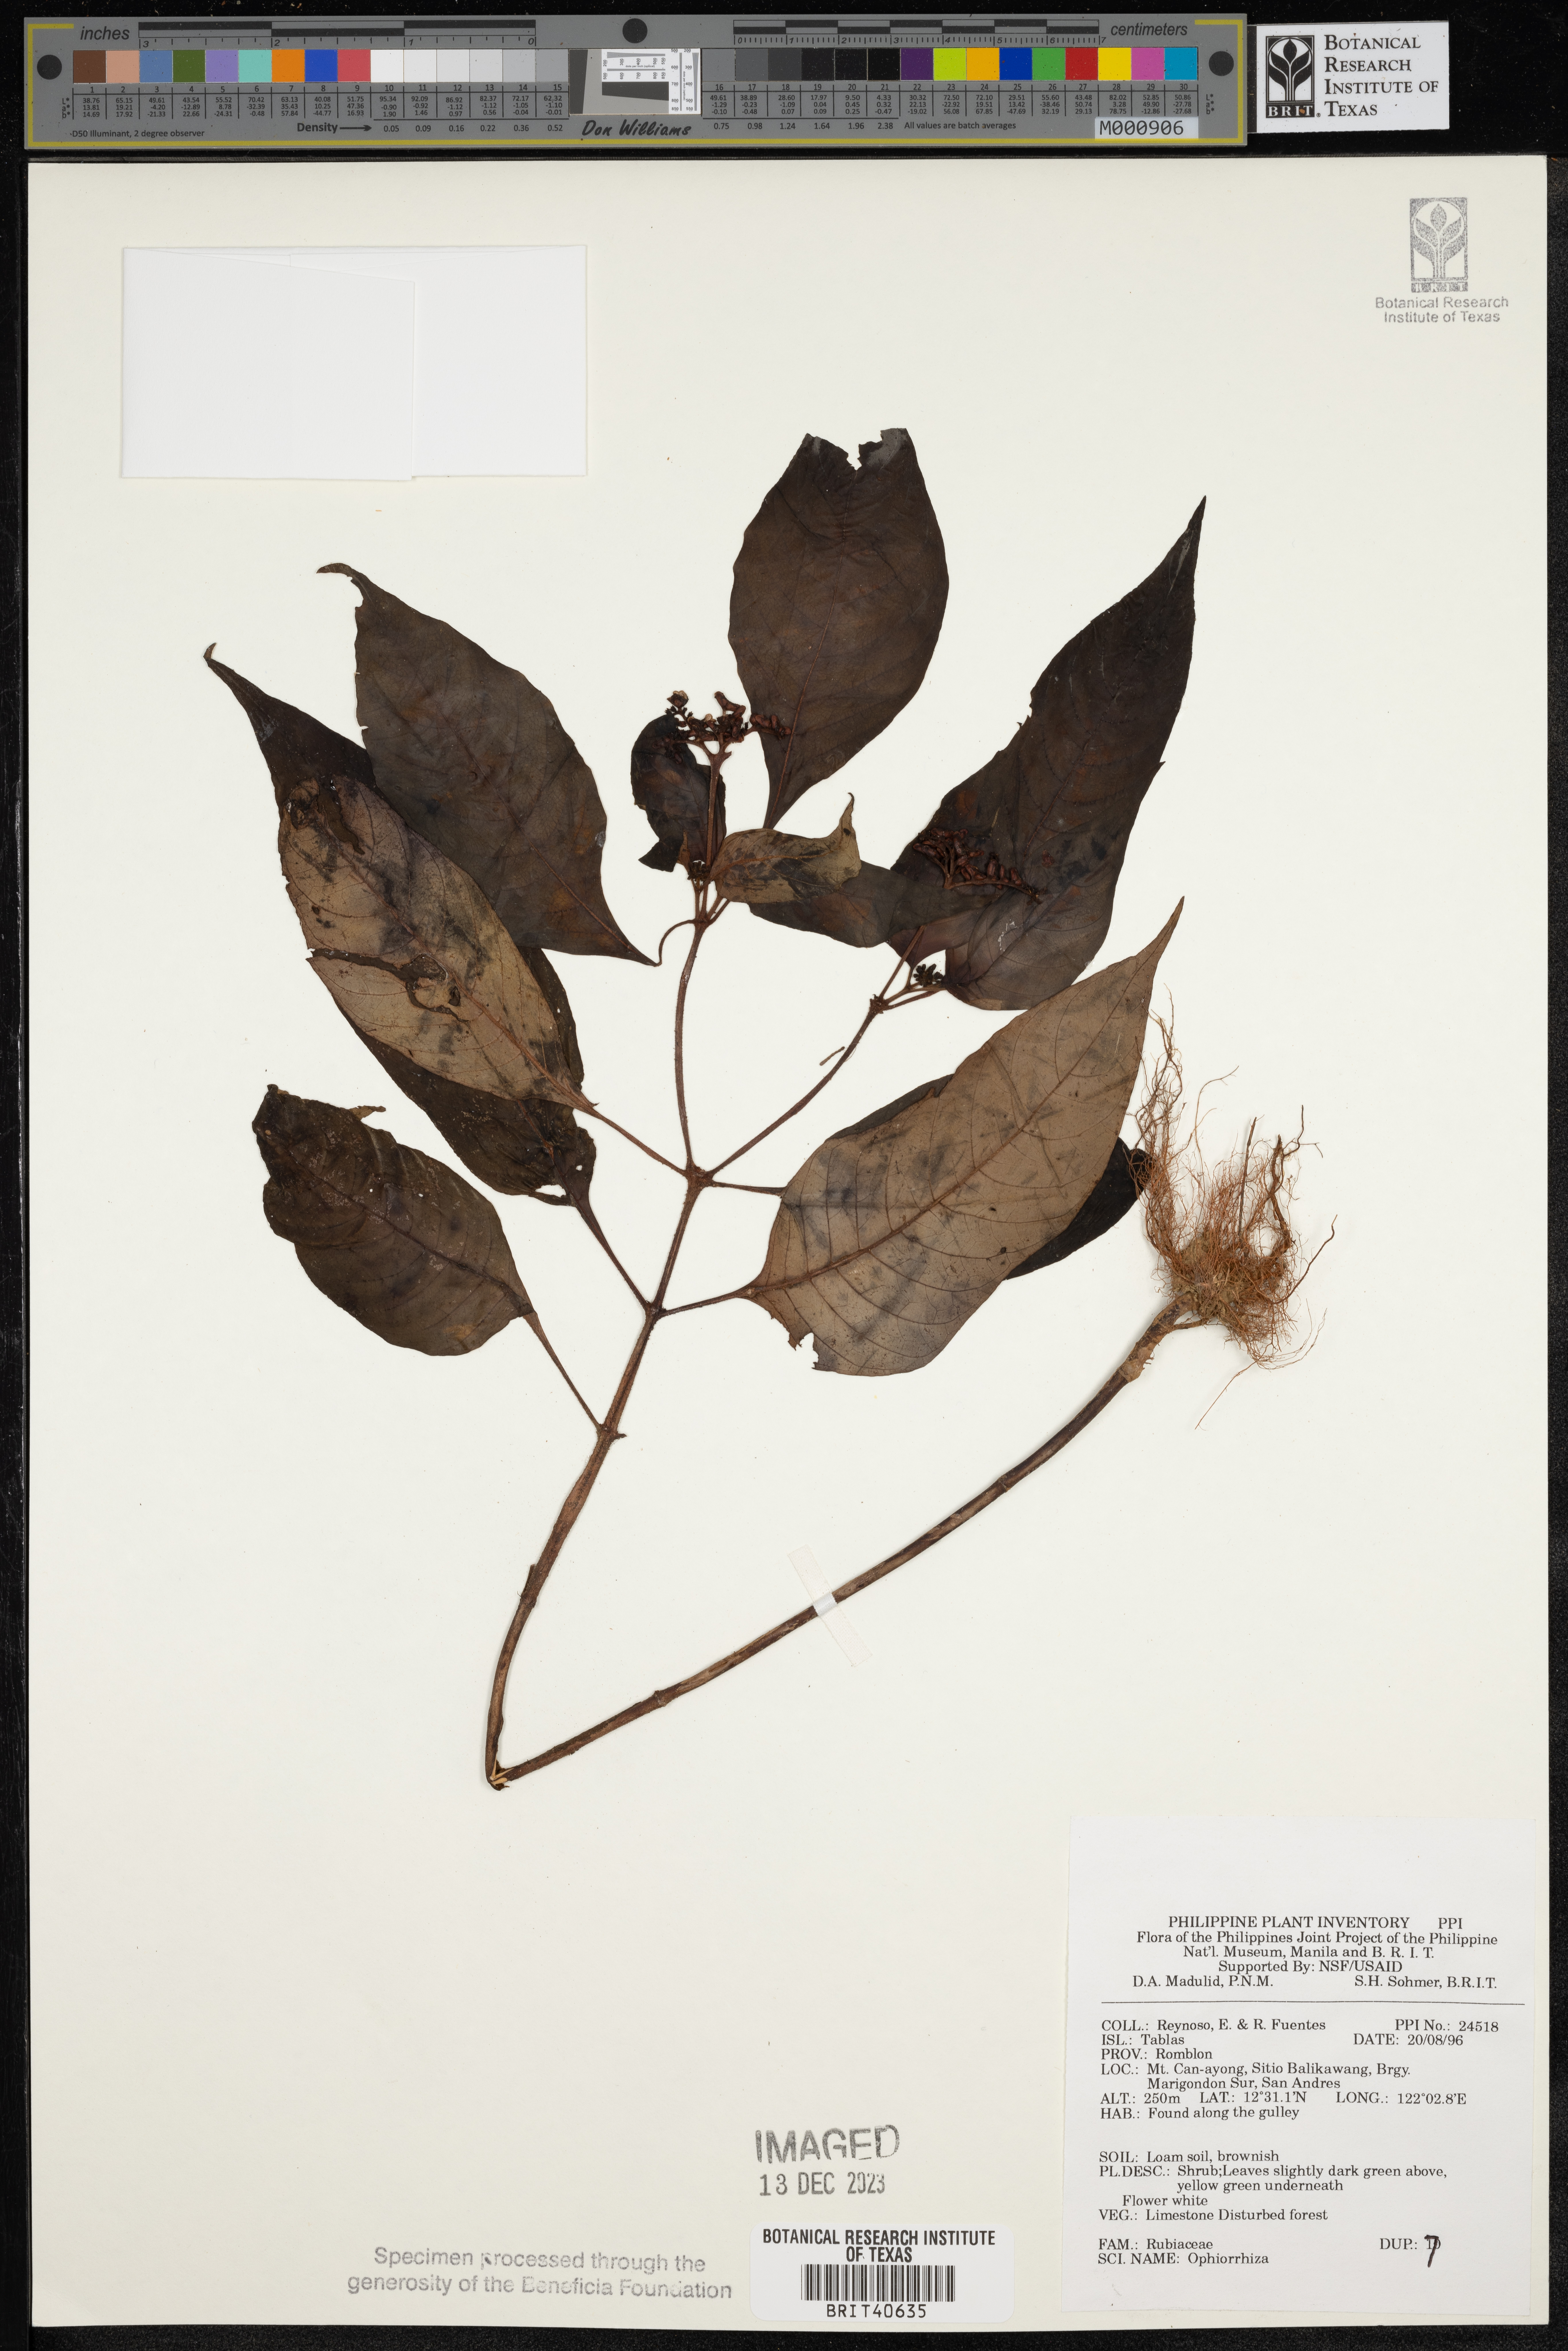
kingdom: Plantae
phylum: Tracheophyta
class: Magnoliopsida
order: Gentianales
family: Rubiaceae
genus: Ophiorrhiza
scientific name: Ophiorrhiza
